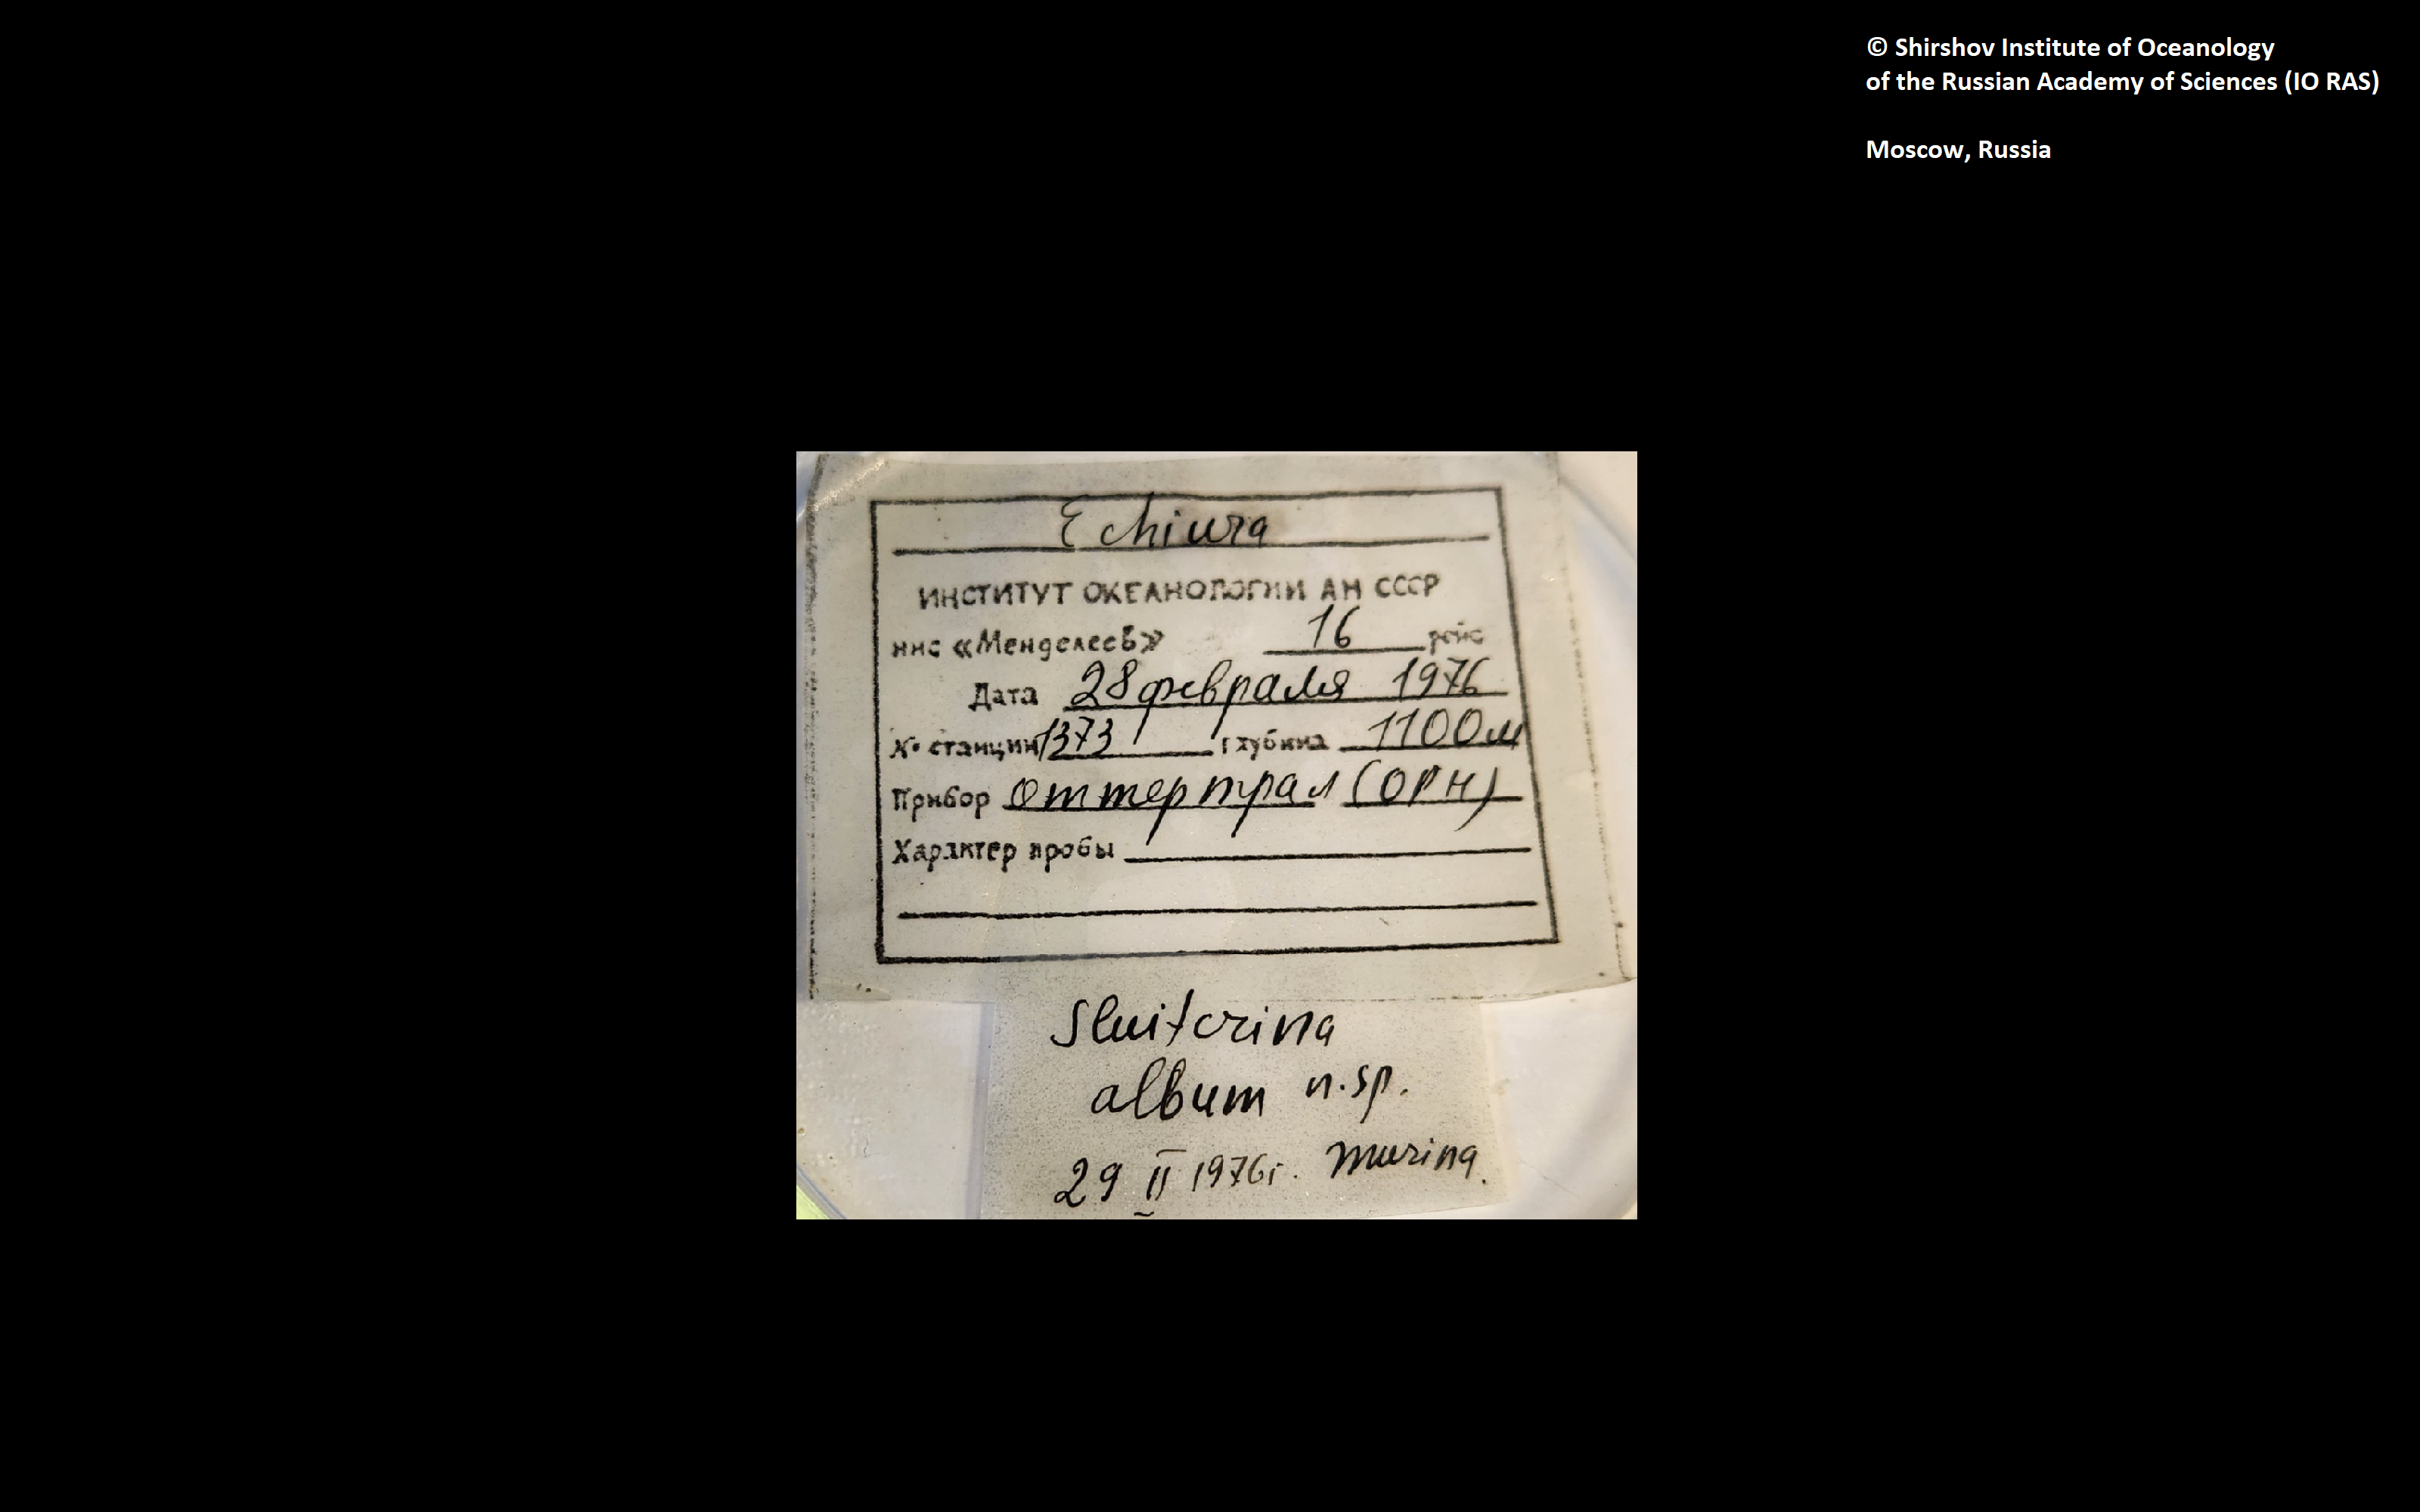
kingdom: Animalia
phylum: Annelida
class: Polychaeta
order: Echiuroidea
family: Bonelliidae
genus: Sluiterina
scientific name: Sluiterina album
